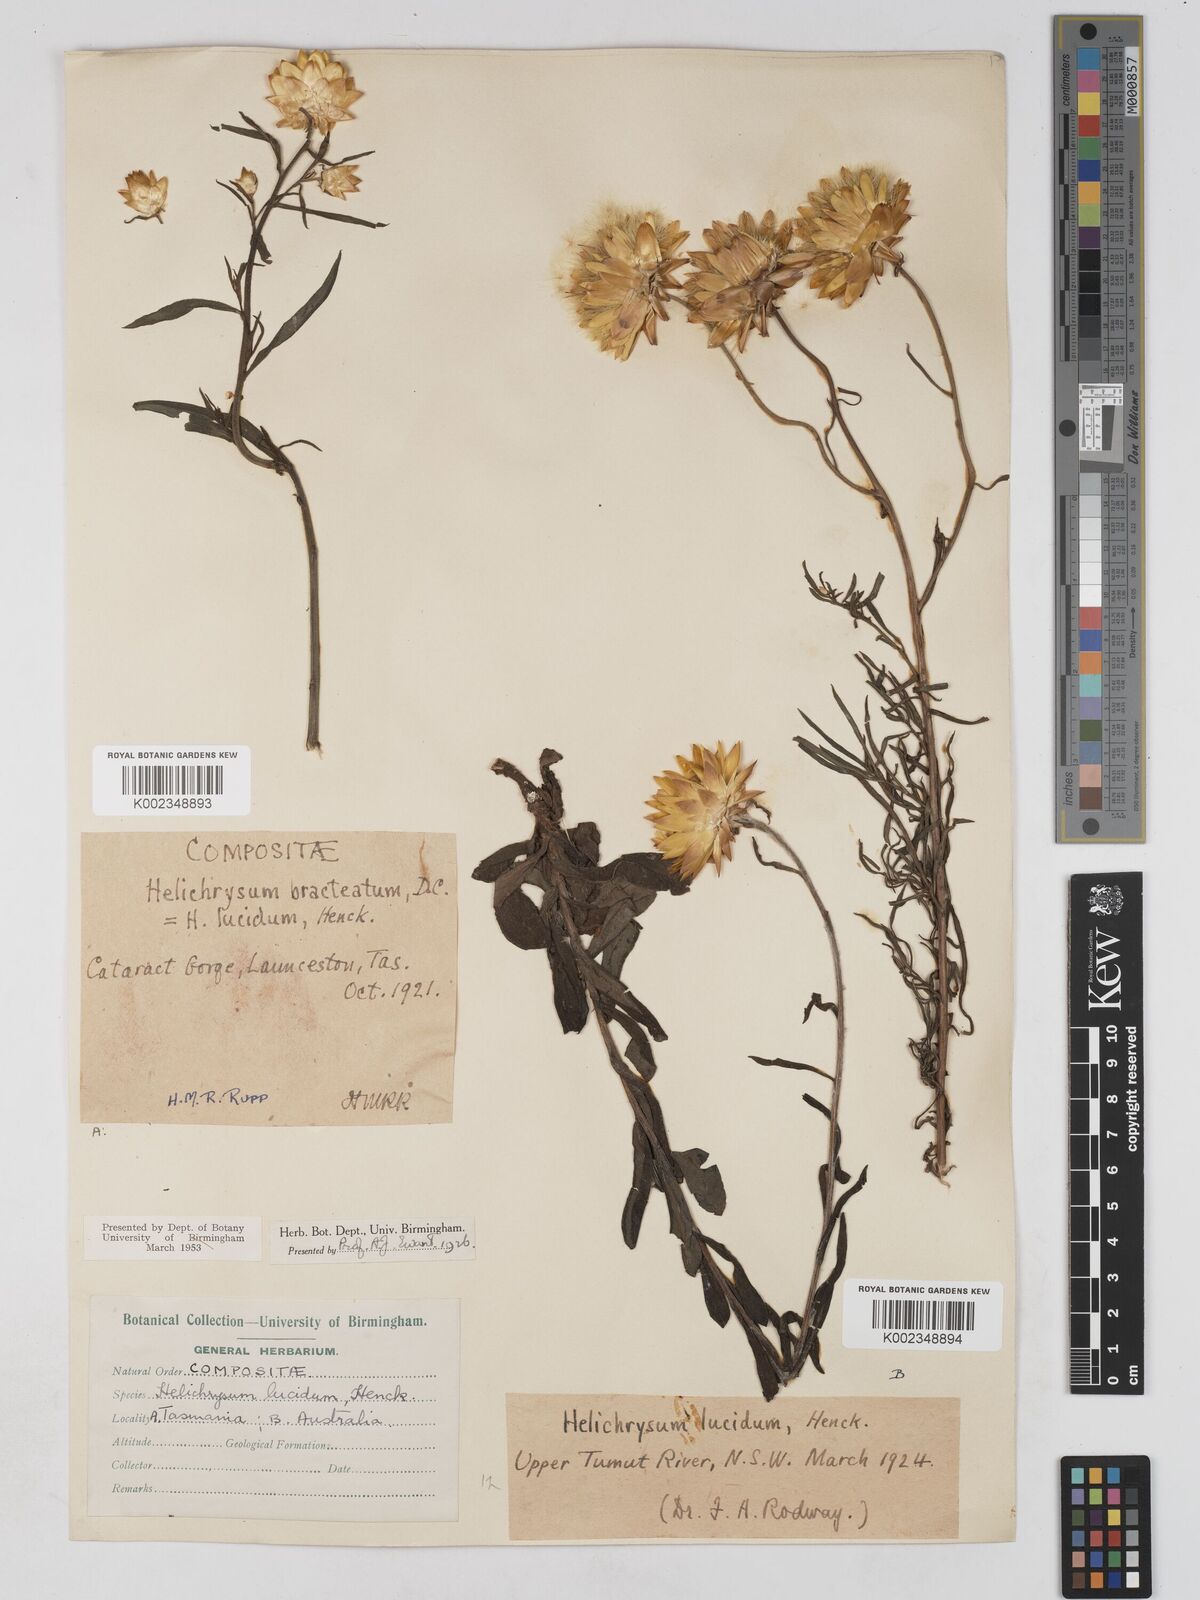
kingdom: Plantae
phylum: Tracheophyta
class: Magnoliopsida
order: Asterales
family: Asteraceae
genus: Xerochrysum
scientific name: Xerochrysum bracteatum
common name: Bracted strawflower
